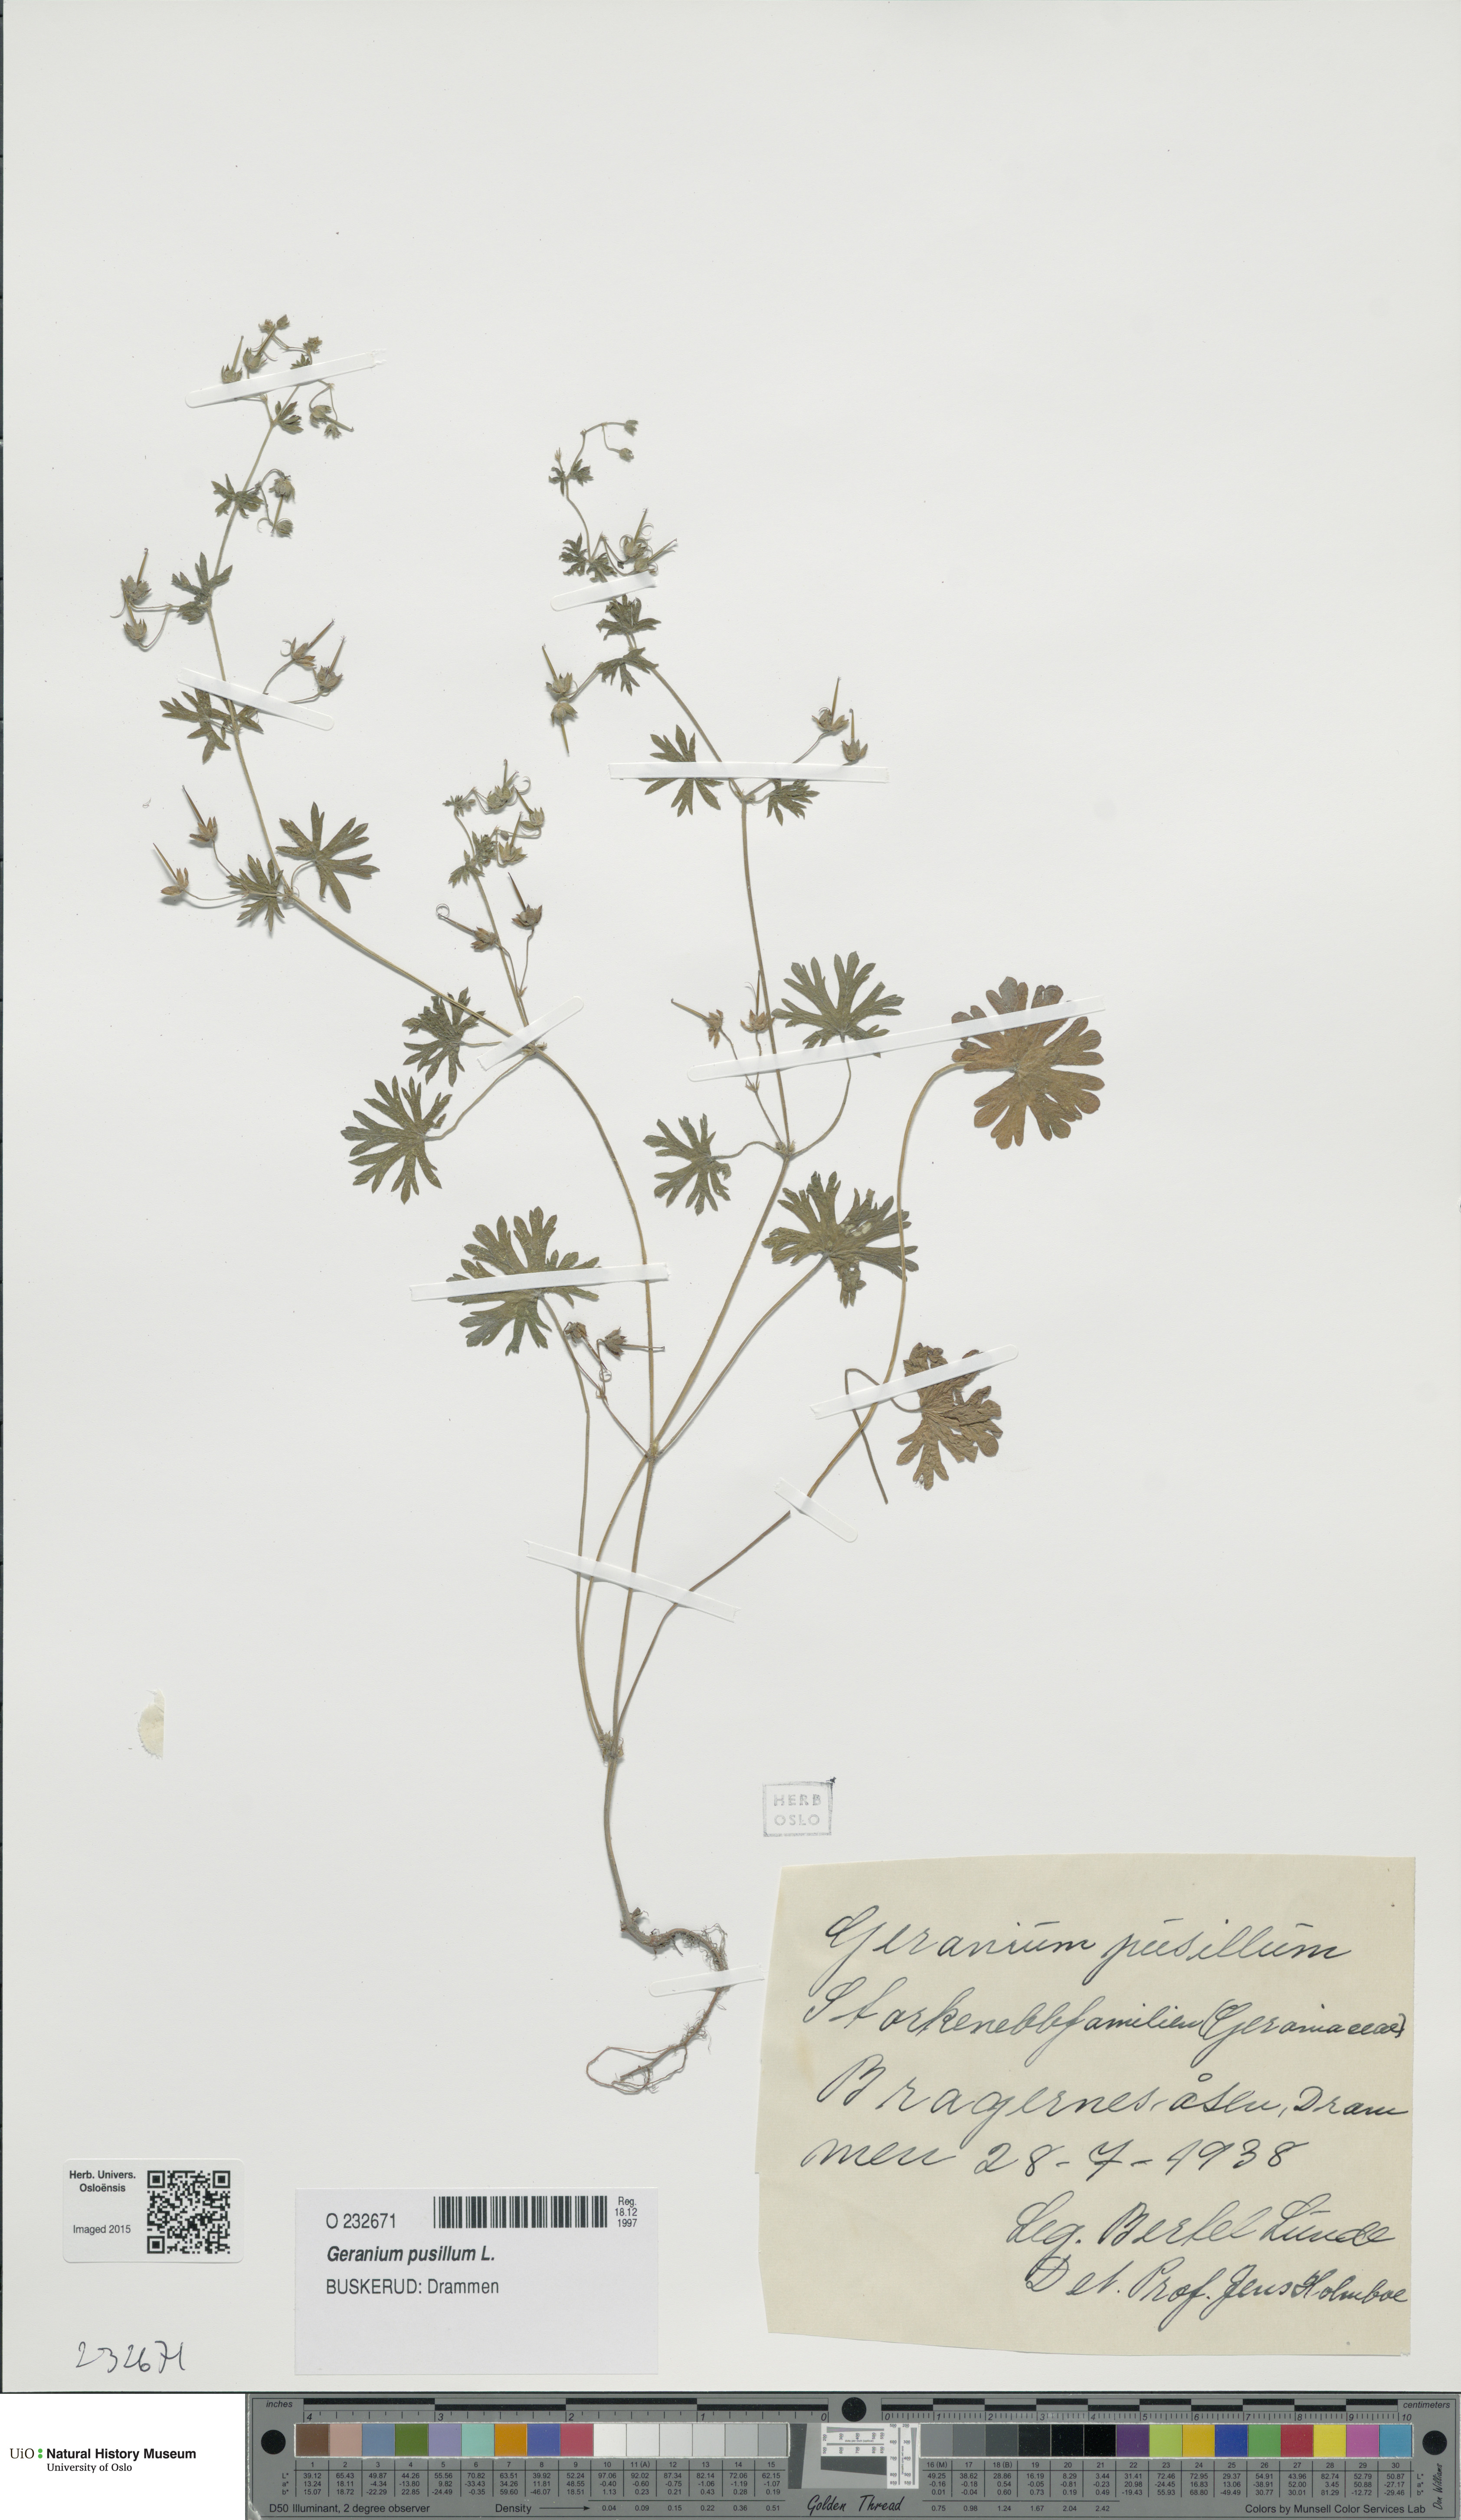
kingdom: Plantae
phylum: Tracheophyta
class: Magnoliopsida
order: Geraniales
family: Geraniaceae
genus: Geranium
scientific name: Geranium pusillum
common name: Small geranium
